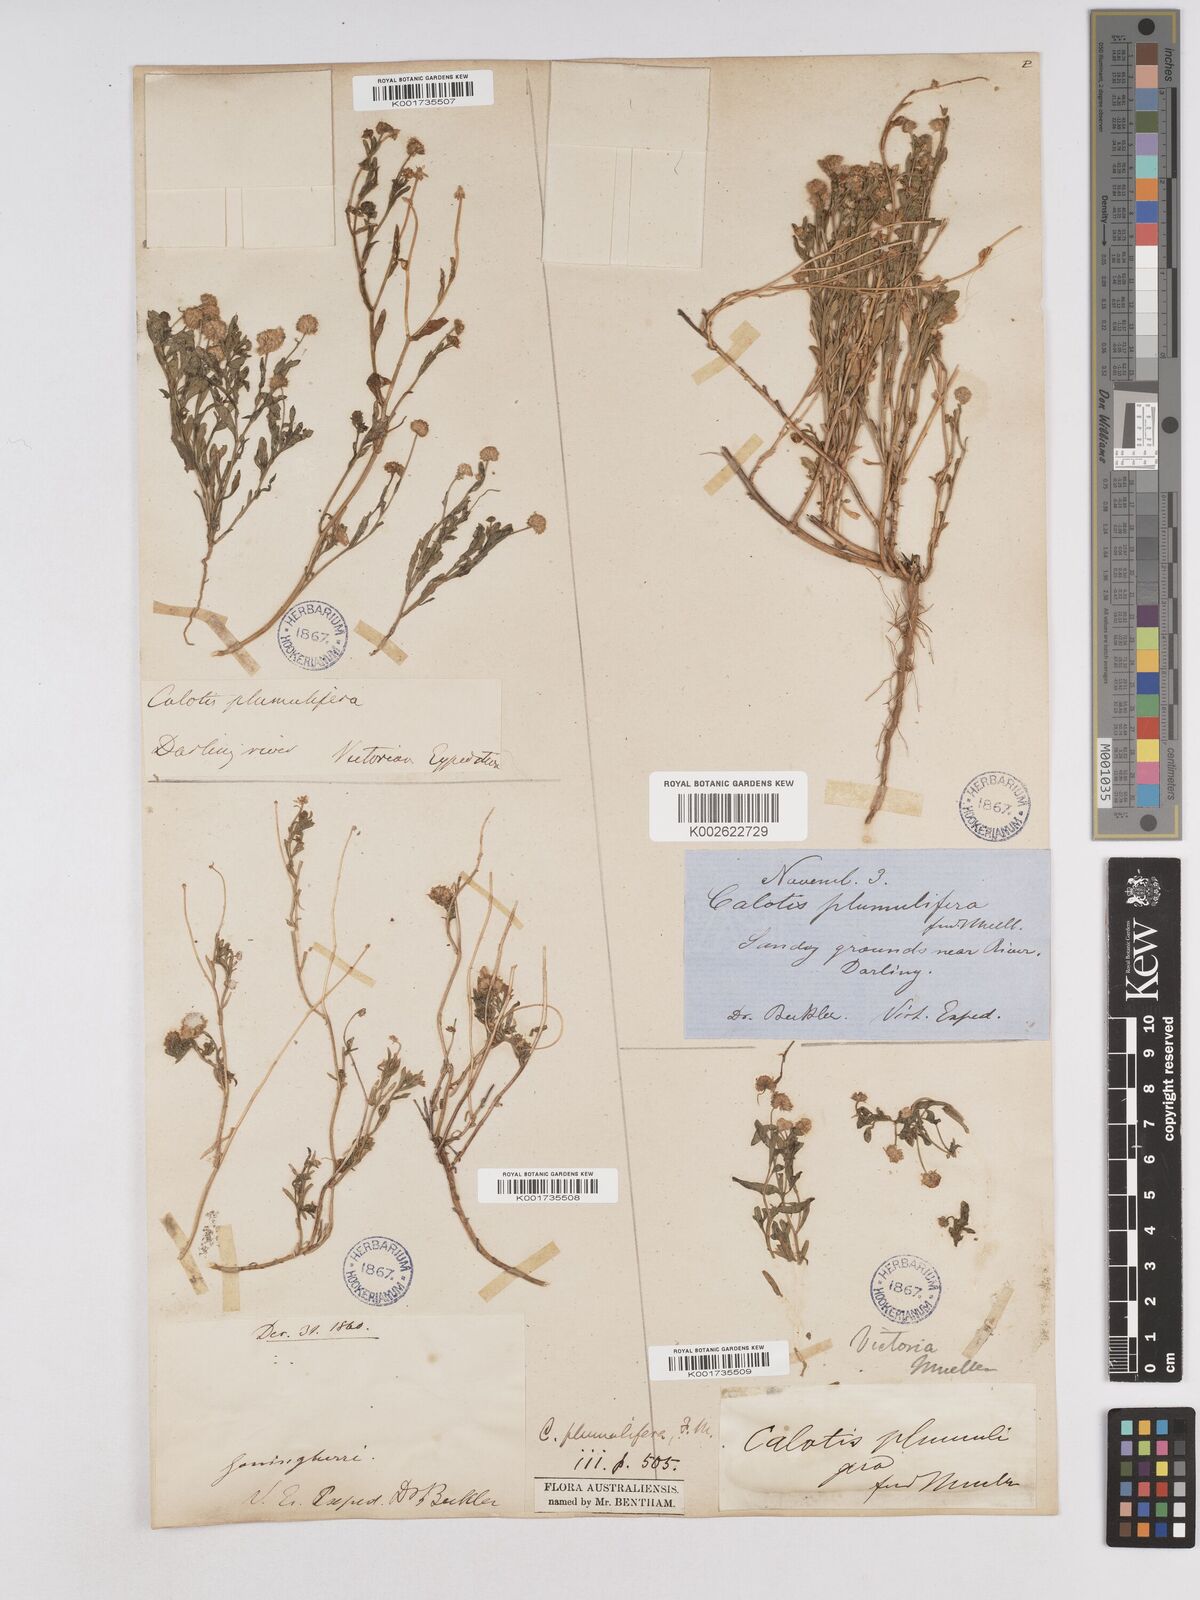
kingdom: Plantae
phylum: Tracheophyta
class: Magnoliopsida
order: Asterales
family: Asteraceae
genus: Calotis
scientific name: Calotis multicaulis
